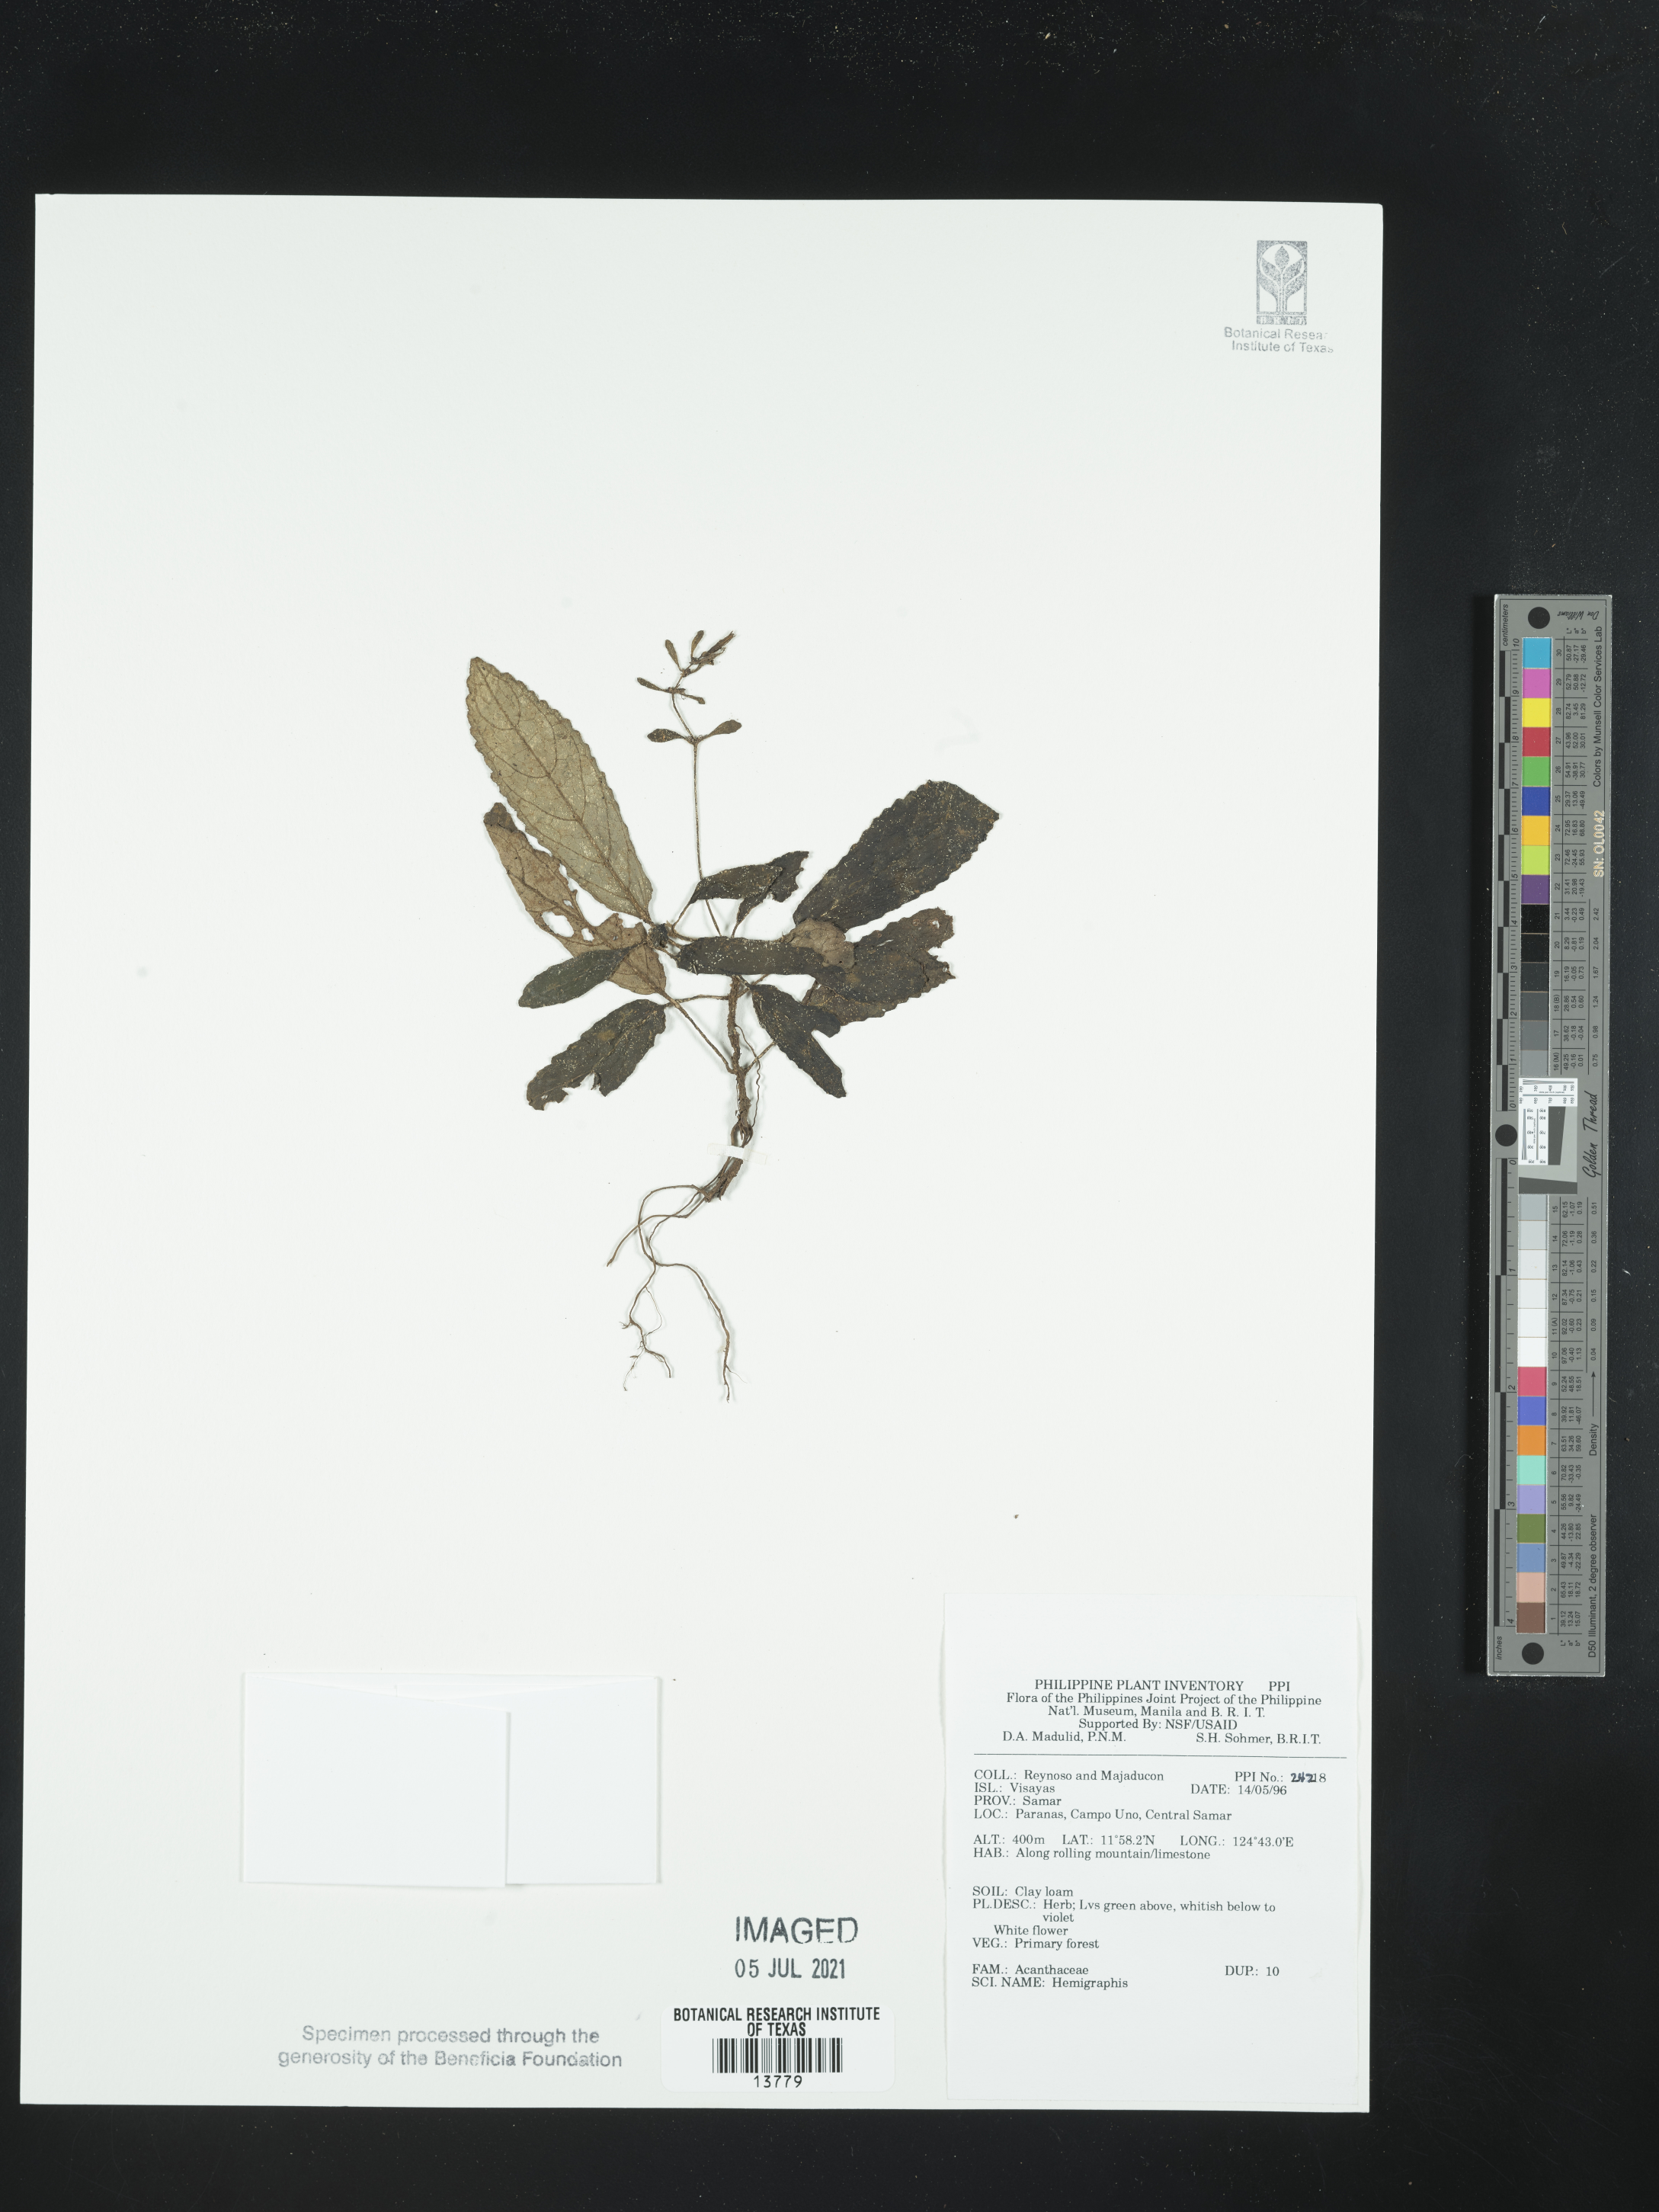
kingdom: Plantae
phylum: Tracheophyta
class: Magnoliopsida
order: Lamiales
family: Acanthaceae
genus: Hemigraphis
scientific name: Hemigraphis
